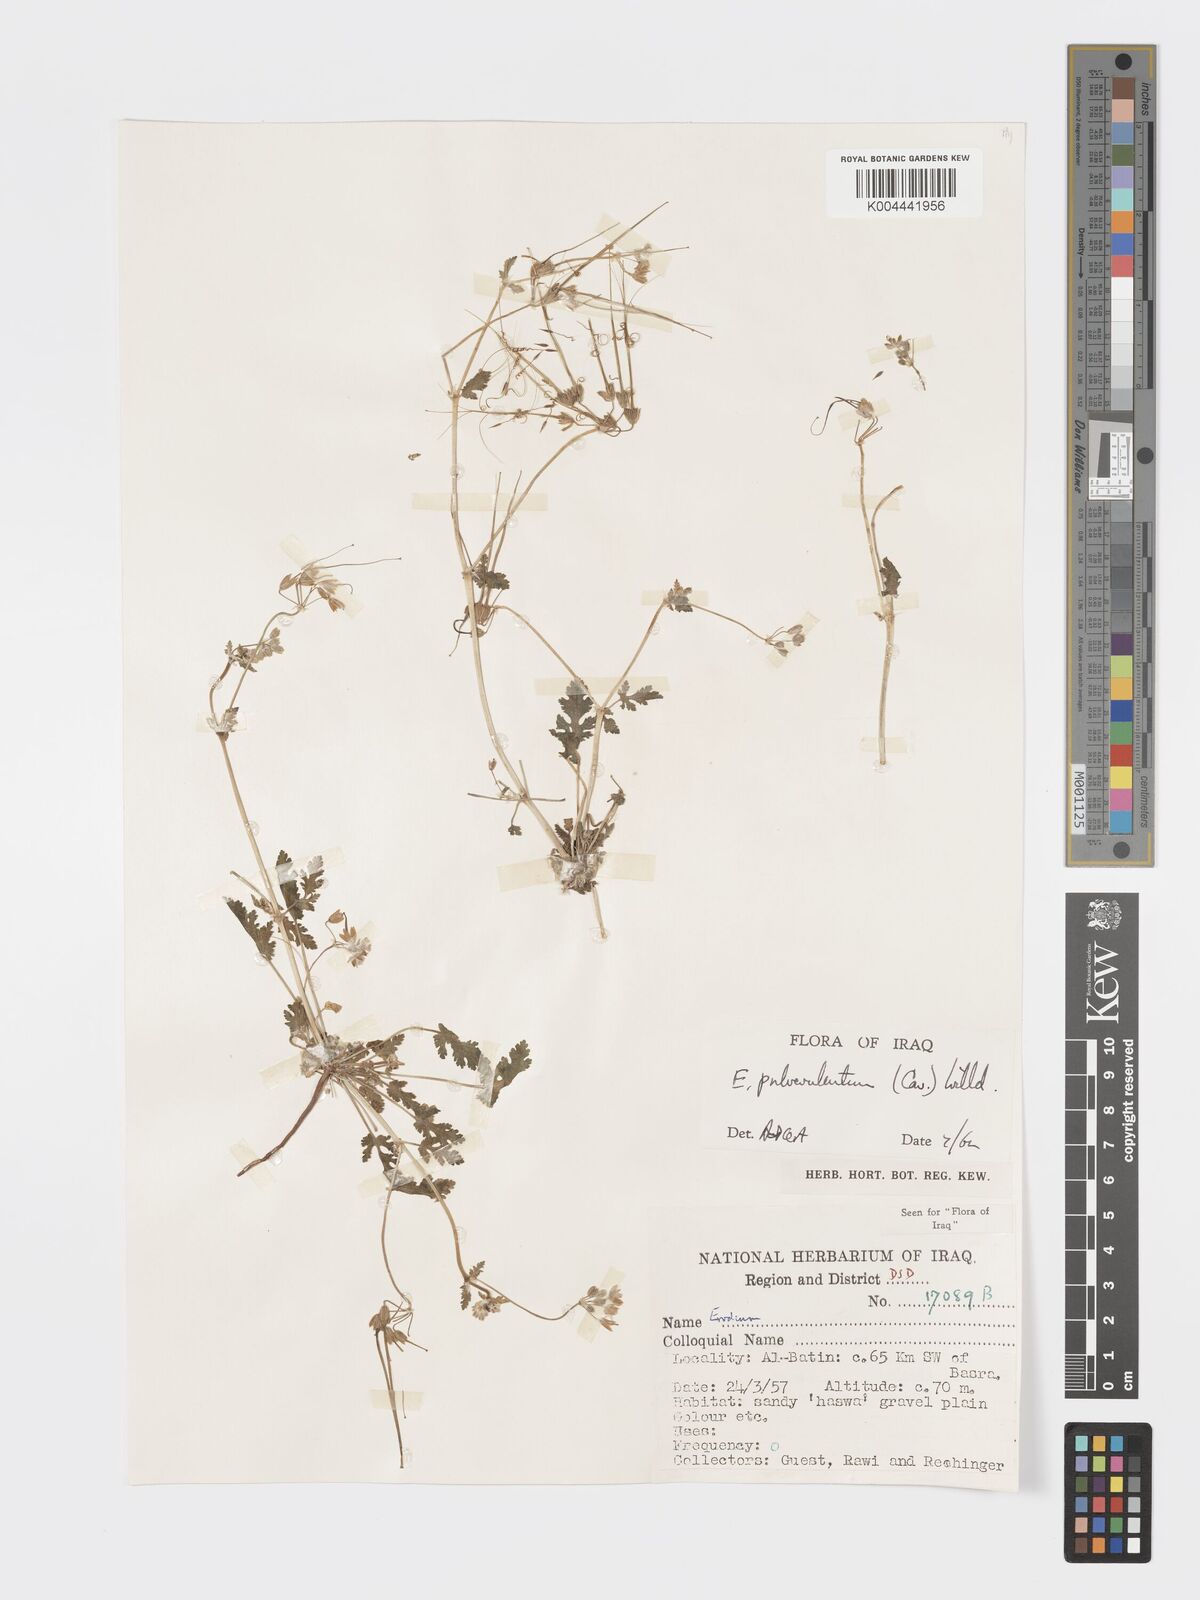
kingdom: Plantae
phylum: Tracheophyta
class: Magnoliopsida
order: Geraniales
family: Geraniaceae
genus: Erodium
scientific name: Erodium laciniatum
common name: Cutleaf stork's bill
